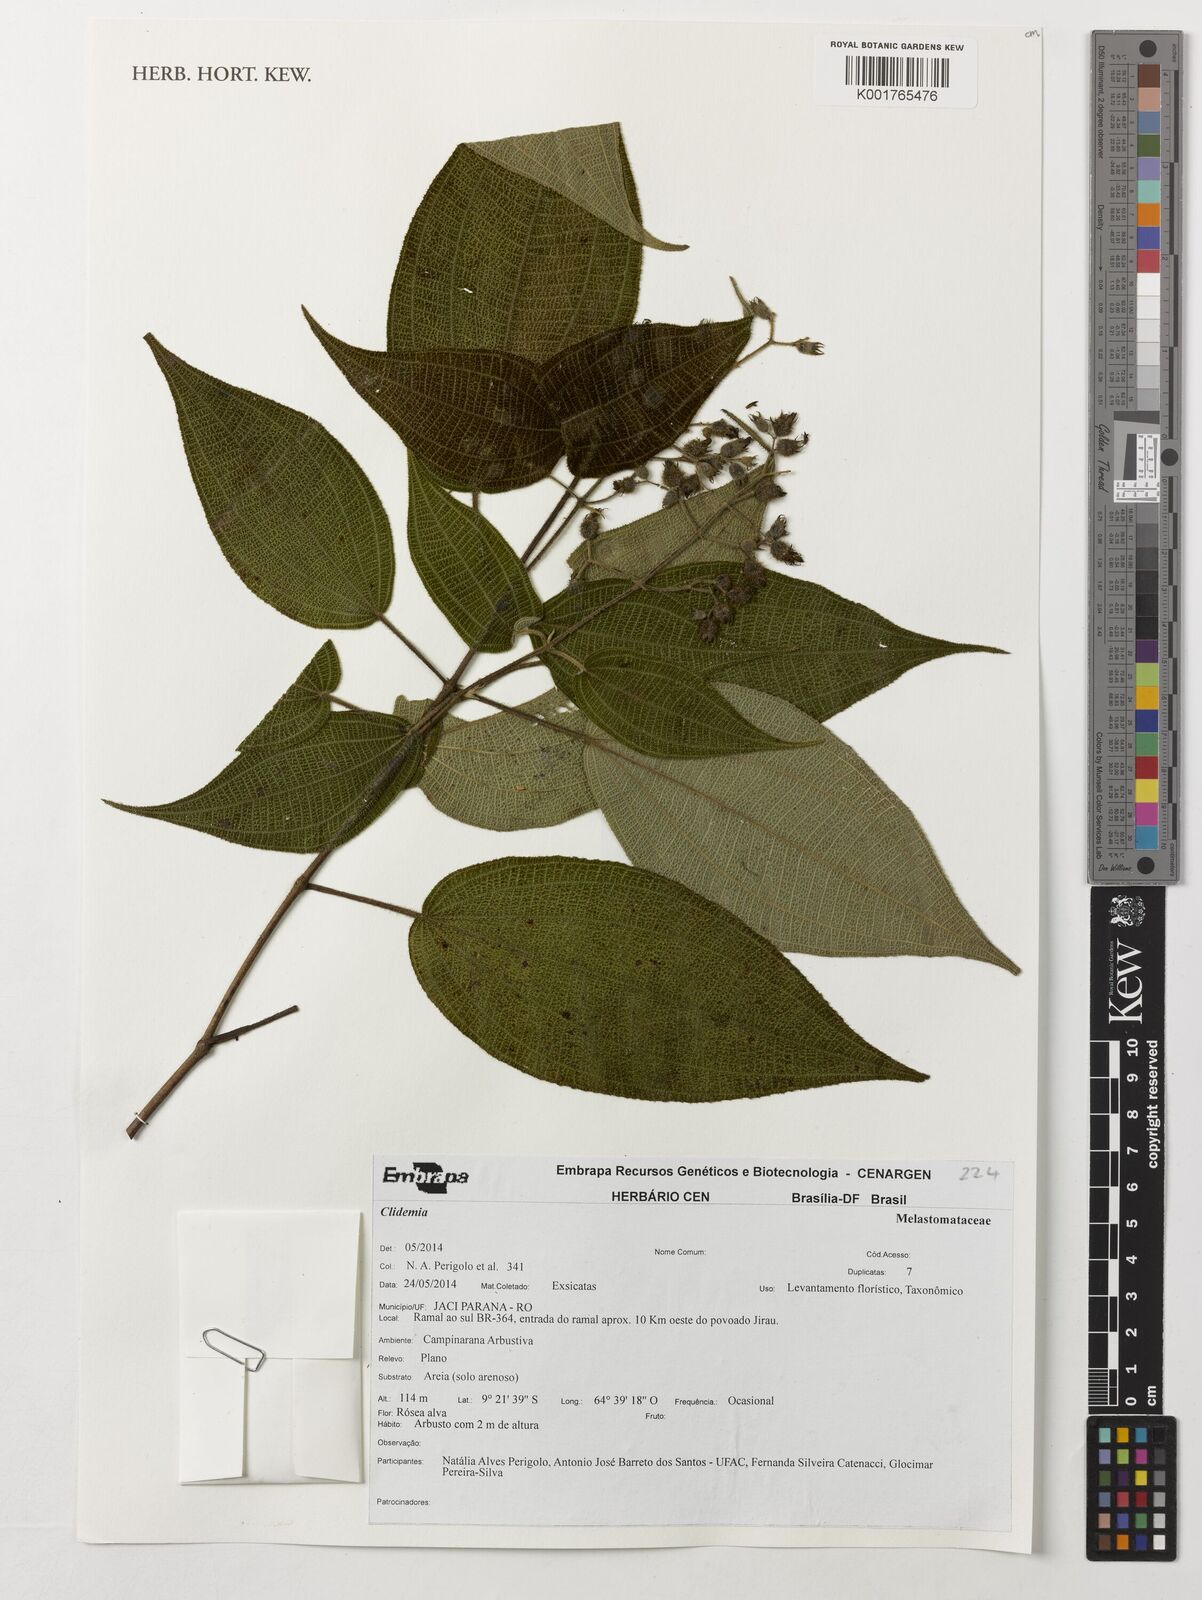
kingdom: Plantae
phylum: Tracheophyta
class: Magnoliopsida
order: Myrtales
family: Melastomataceae
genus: Miconia
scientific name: Miconia
